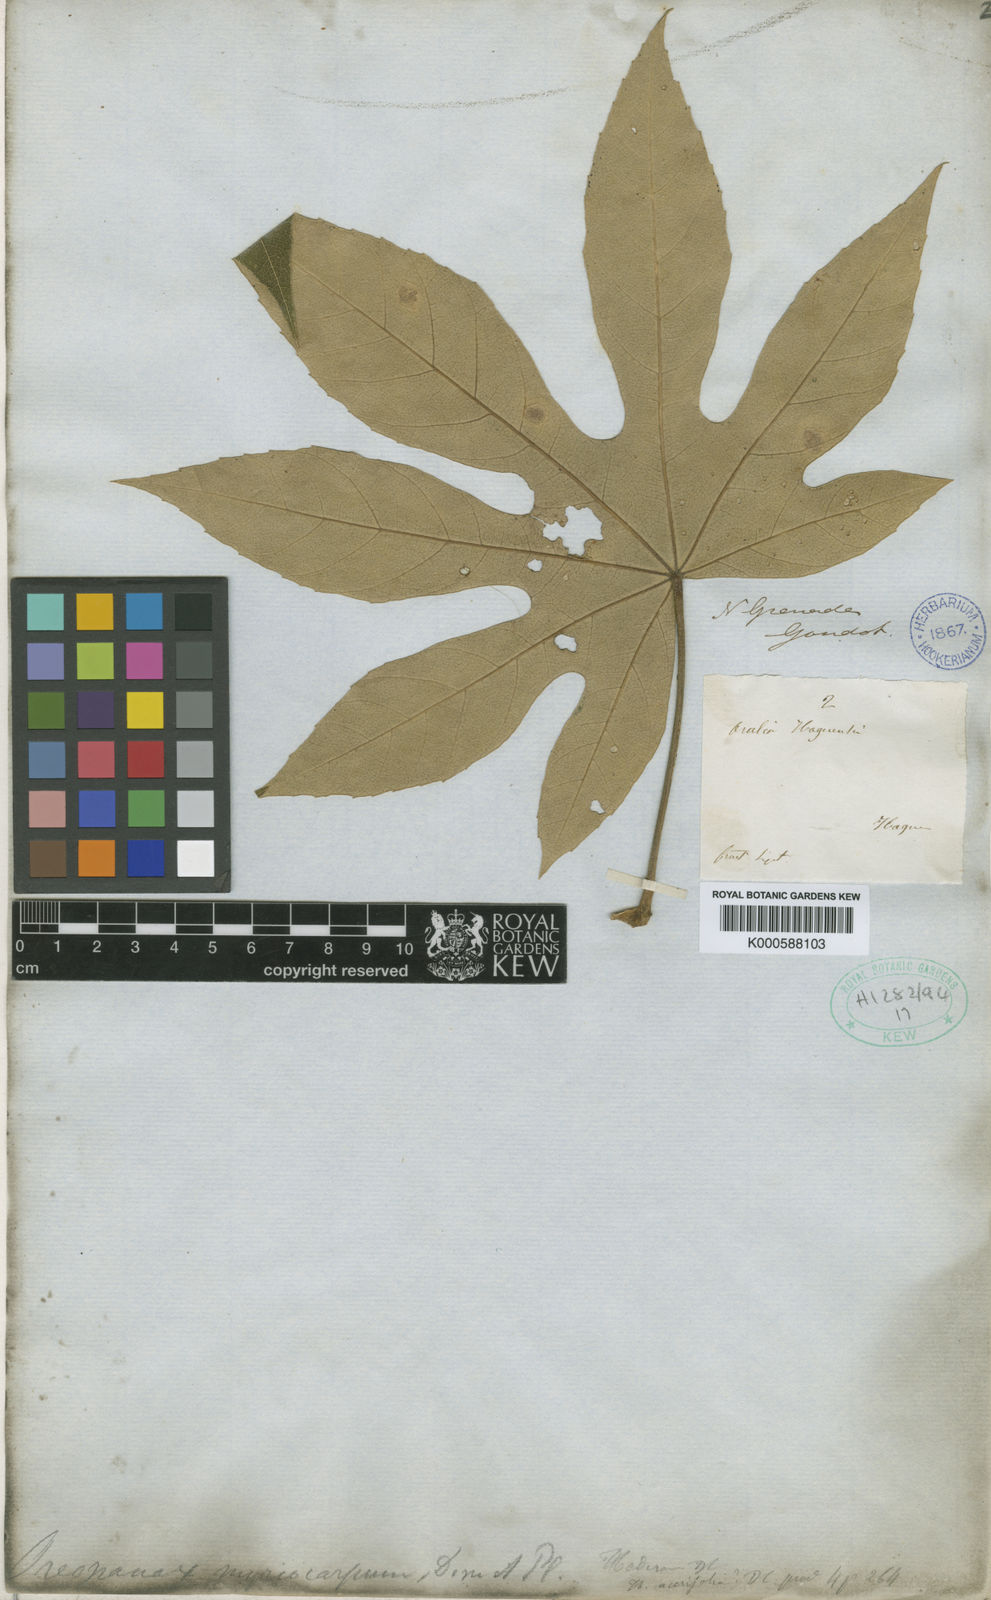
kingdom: Plantae
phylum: Tracheophyta
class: Magnoliopsida
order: Apiales
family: Araliaceae
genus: Oreopanax
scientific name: Oreopanax
